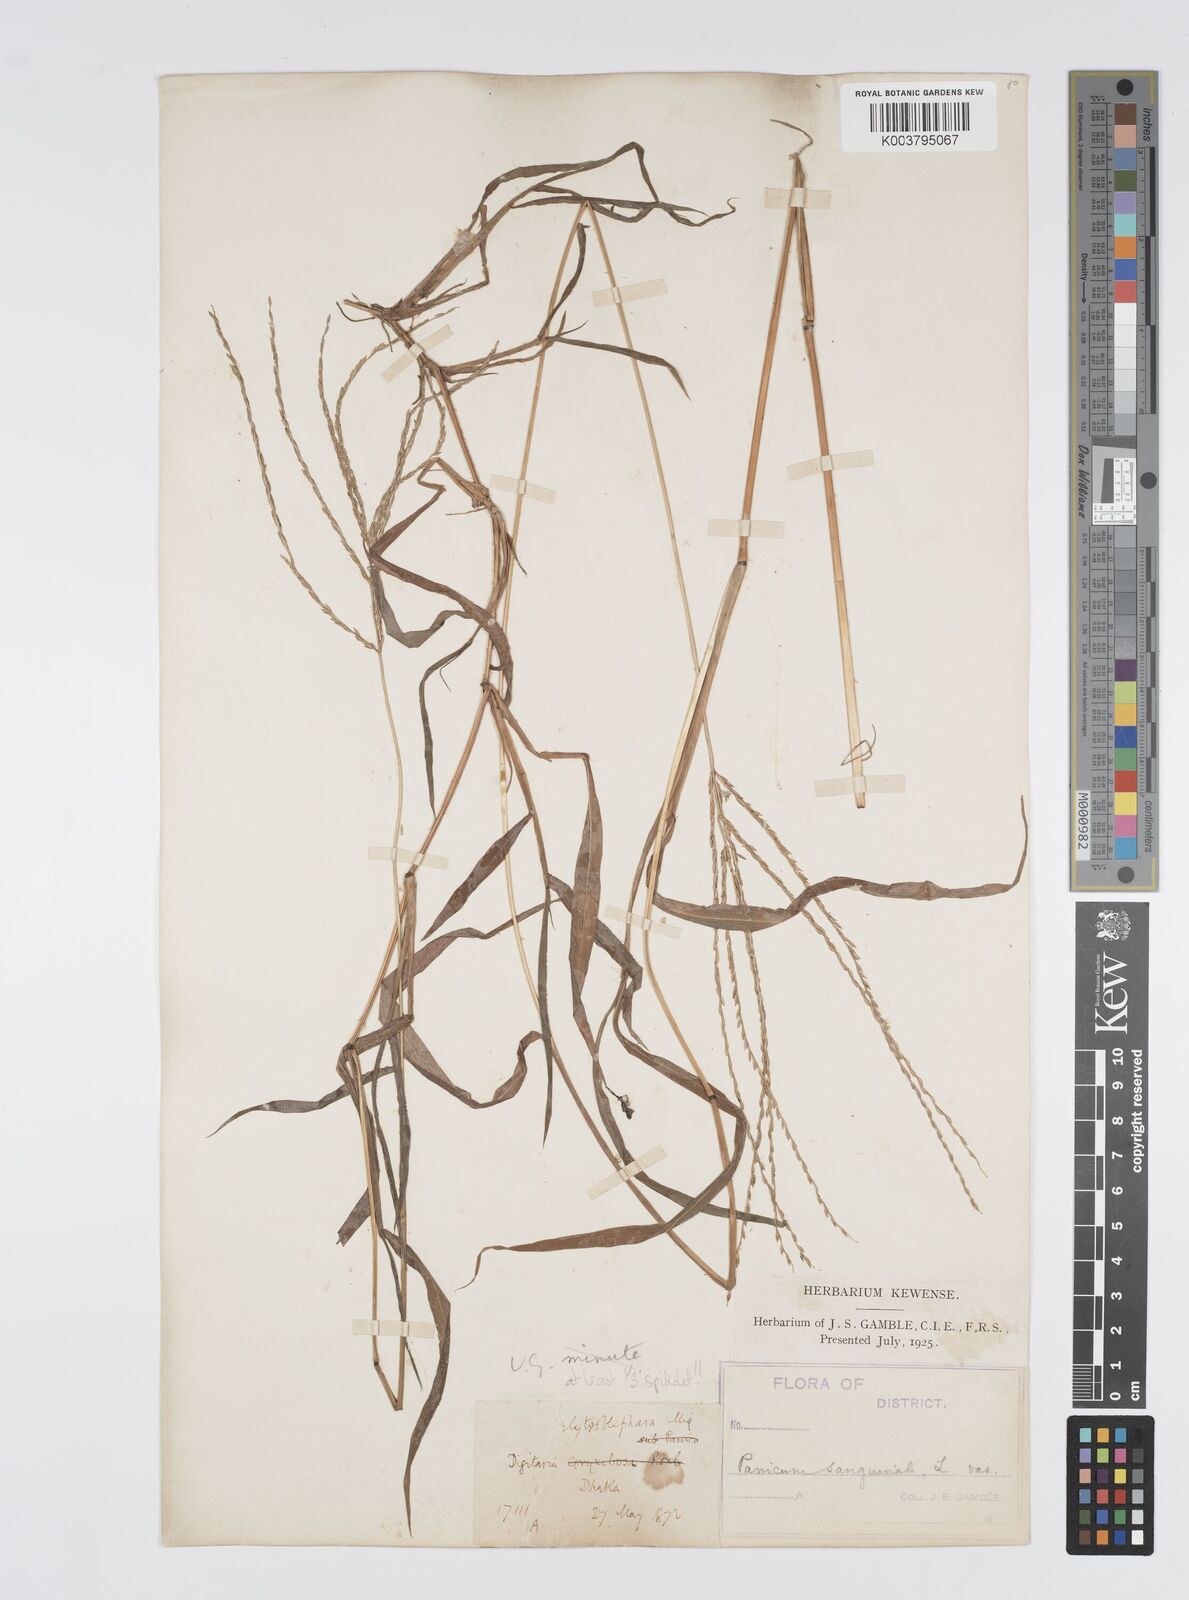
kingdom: Plantae
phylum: Tracheophyta
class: Liliopsida
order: Poales
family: Poaceae
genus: Digitaria
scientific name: Digitaria setigera
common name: East indian crabgrass
